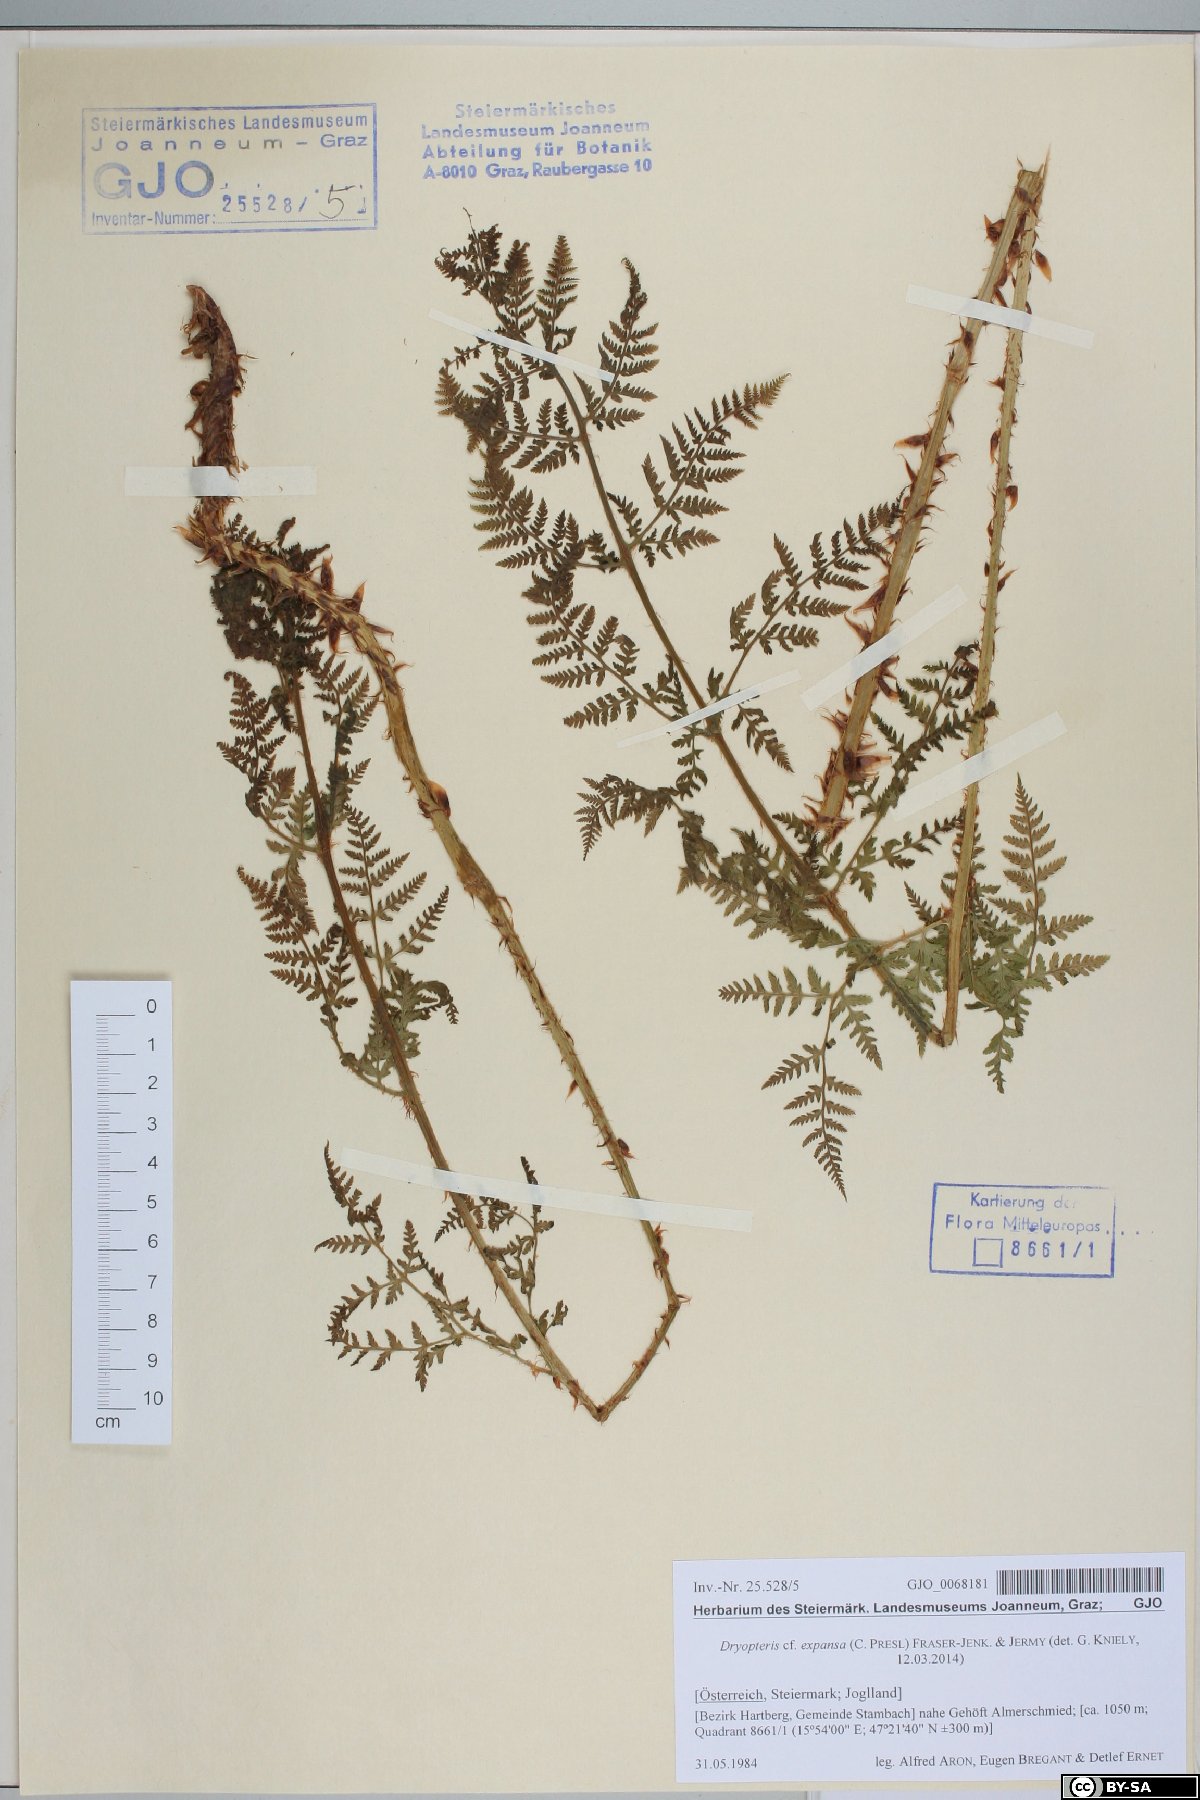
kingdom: Plantae
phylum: Tracheophyta
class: Polypodiopsida
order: Polypodiales
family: Dryopteridaceae
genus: Dryopteris
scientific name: Dryopteris expansa
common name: Northern buckler fern
